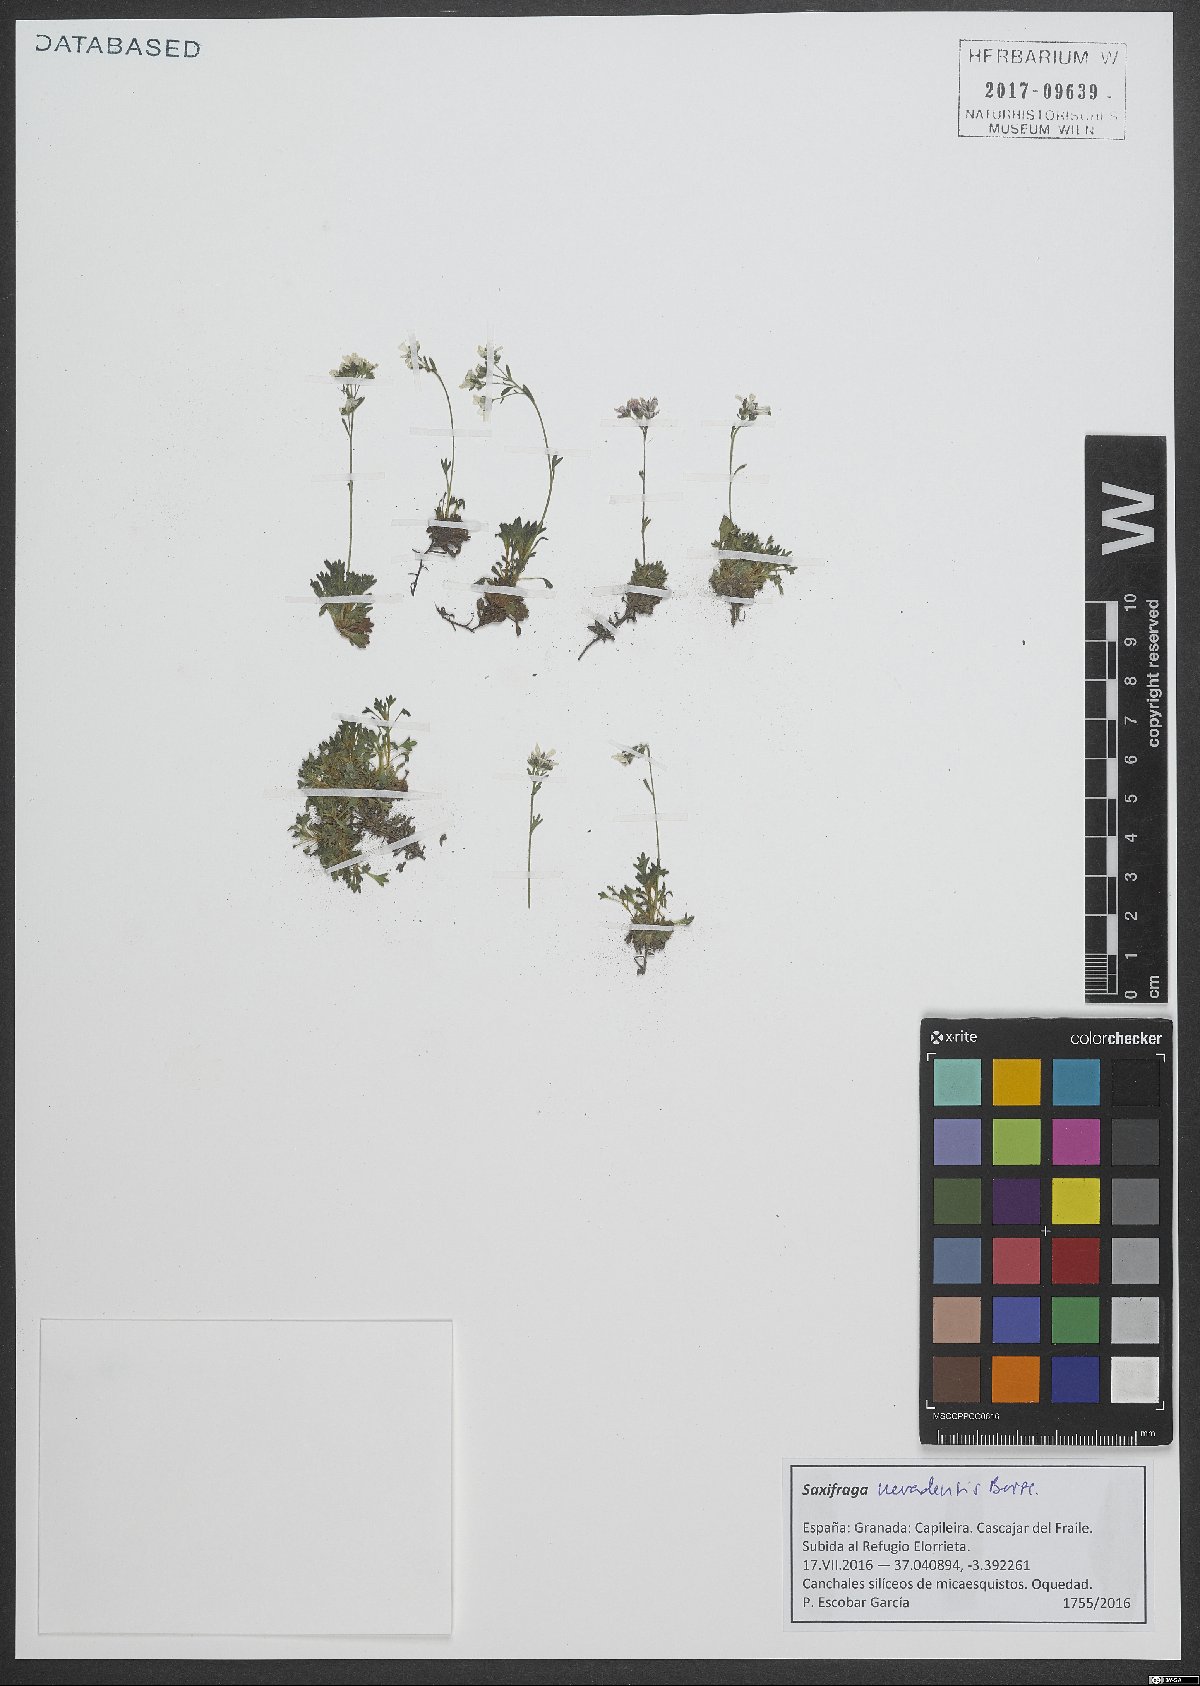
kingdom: Plantae
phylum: Tracheophyta
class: Magnoliopsida
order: Saxifragales
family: Saxifragaceae
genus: Saxifraga
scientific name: Saxifraga nevadensis
